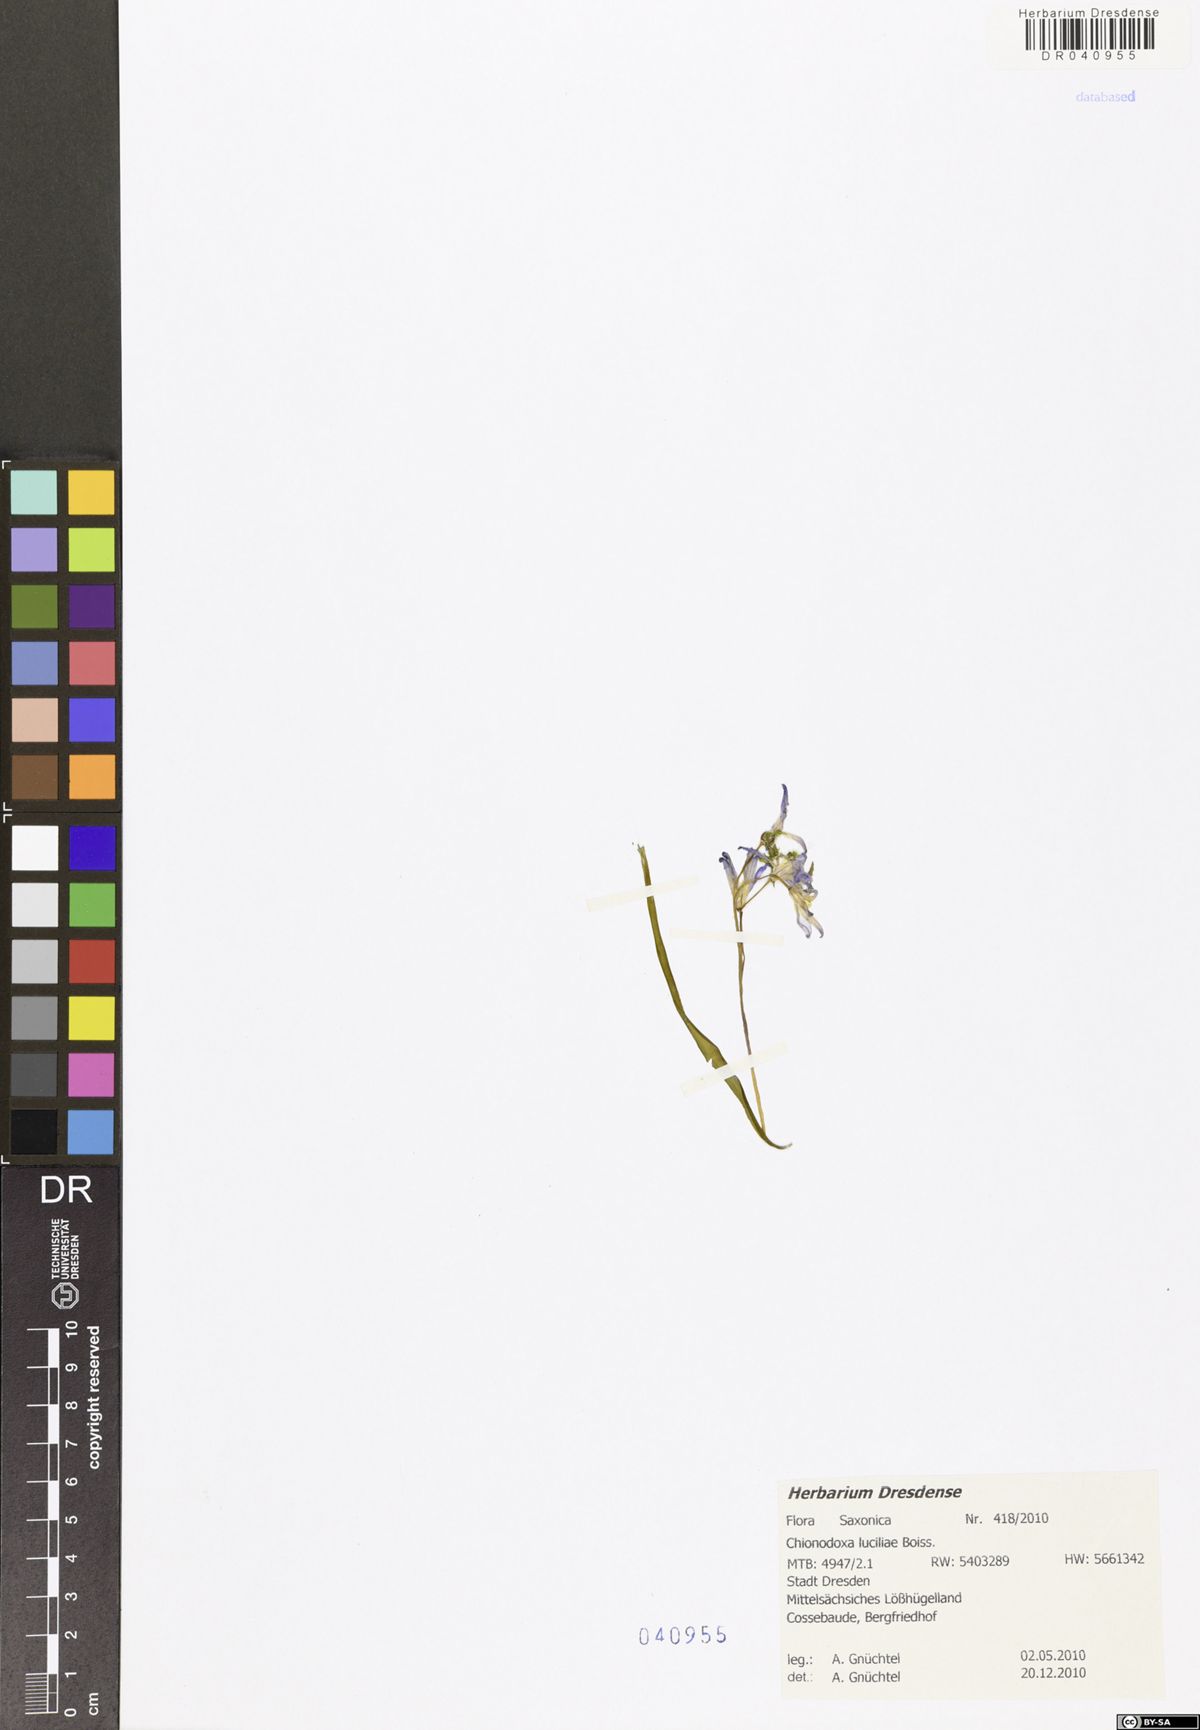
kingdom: Plantae
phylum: Tracheophyta
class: Liliopsida
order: Asparagales
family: Asparagaceae
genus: Scilla
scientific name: Scilla luciliae
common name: Boissier's glory-of-the-snow
